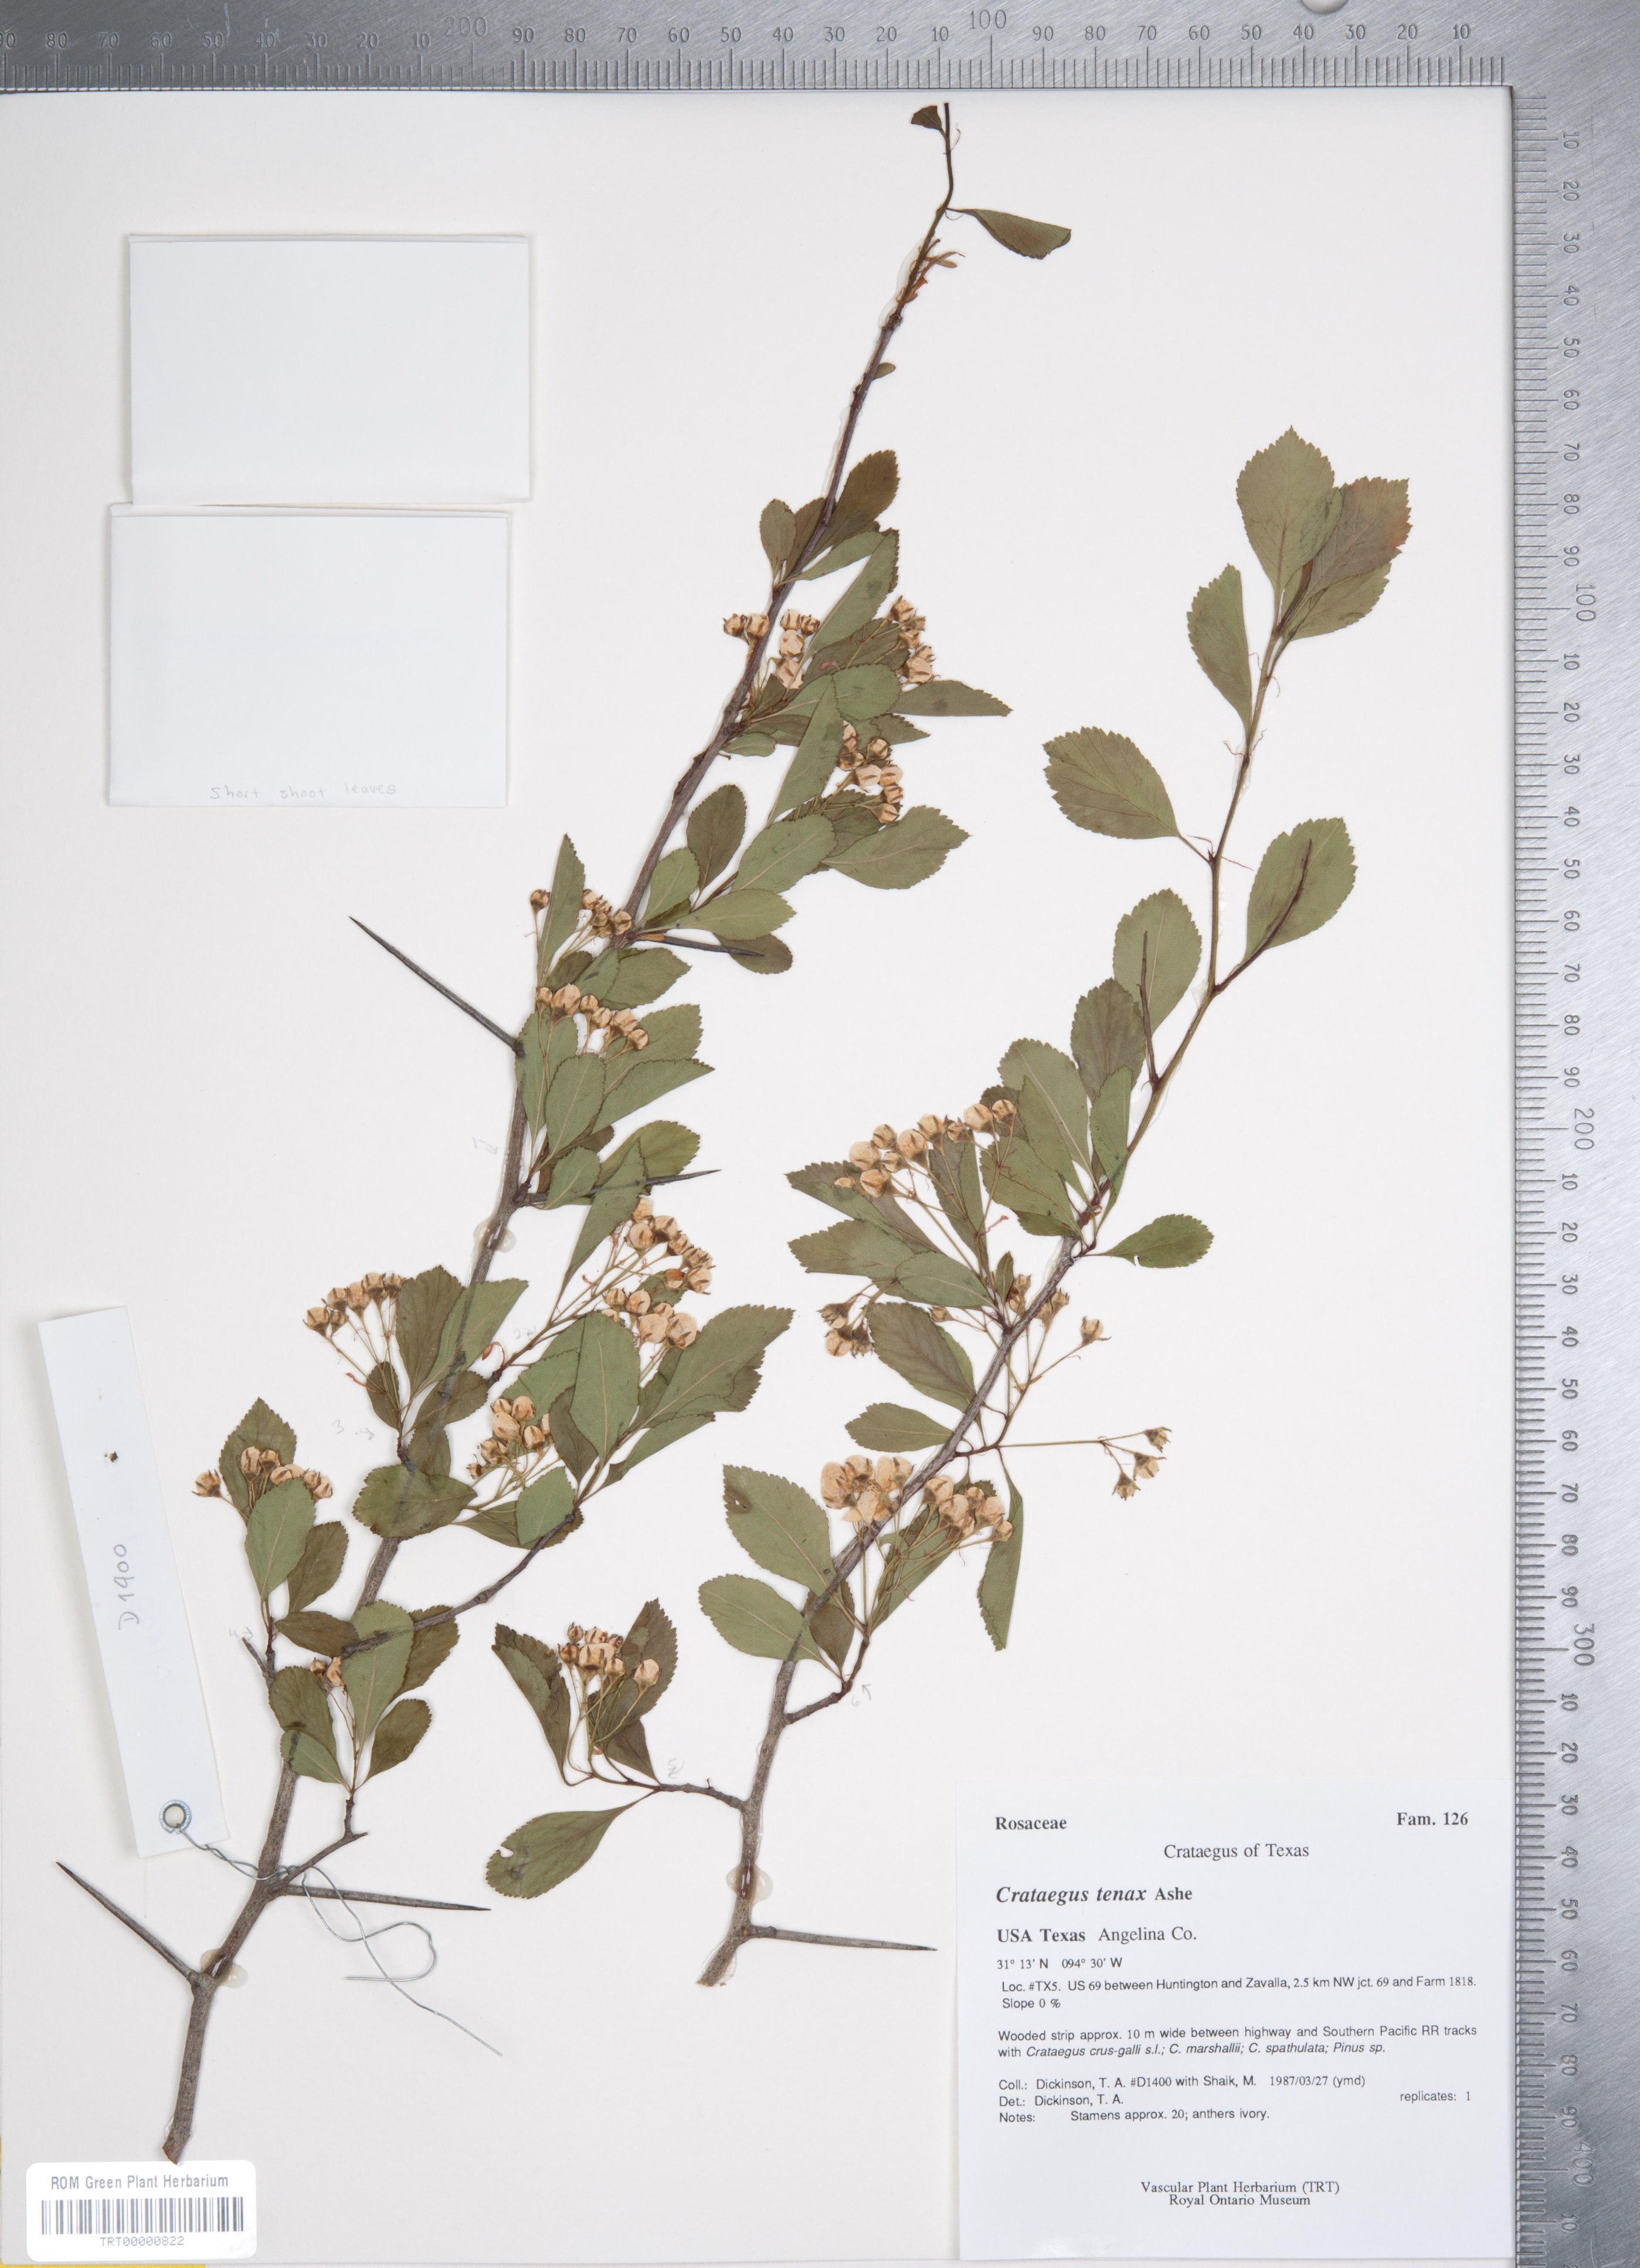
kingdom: Plantae
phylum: Tracheophyta
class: Magnoliopsida
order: Rosales
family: Rosaceae
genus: Crataegus
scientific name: Crataegus crus-galli
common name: Cockspurthorn
